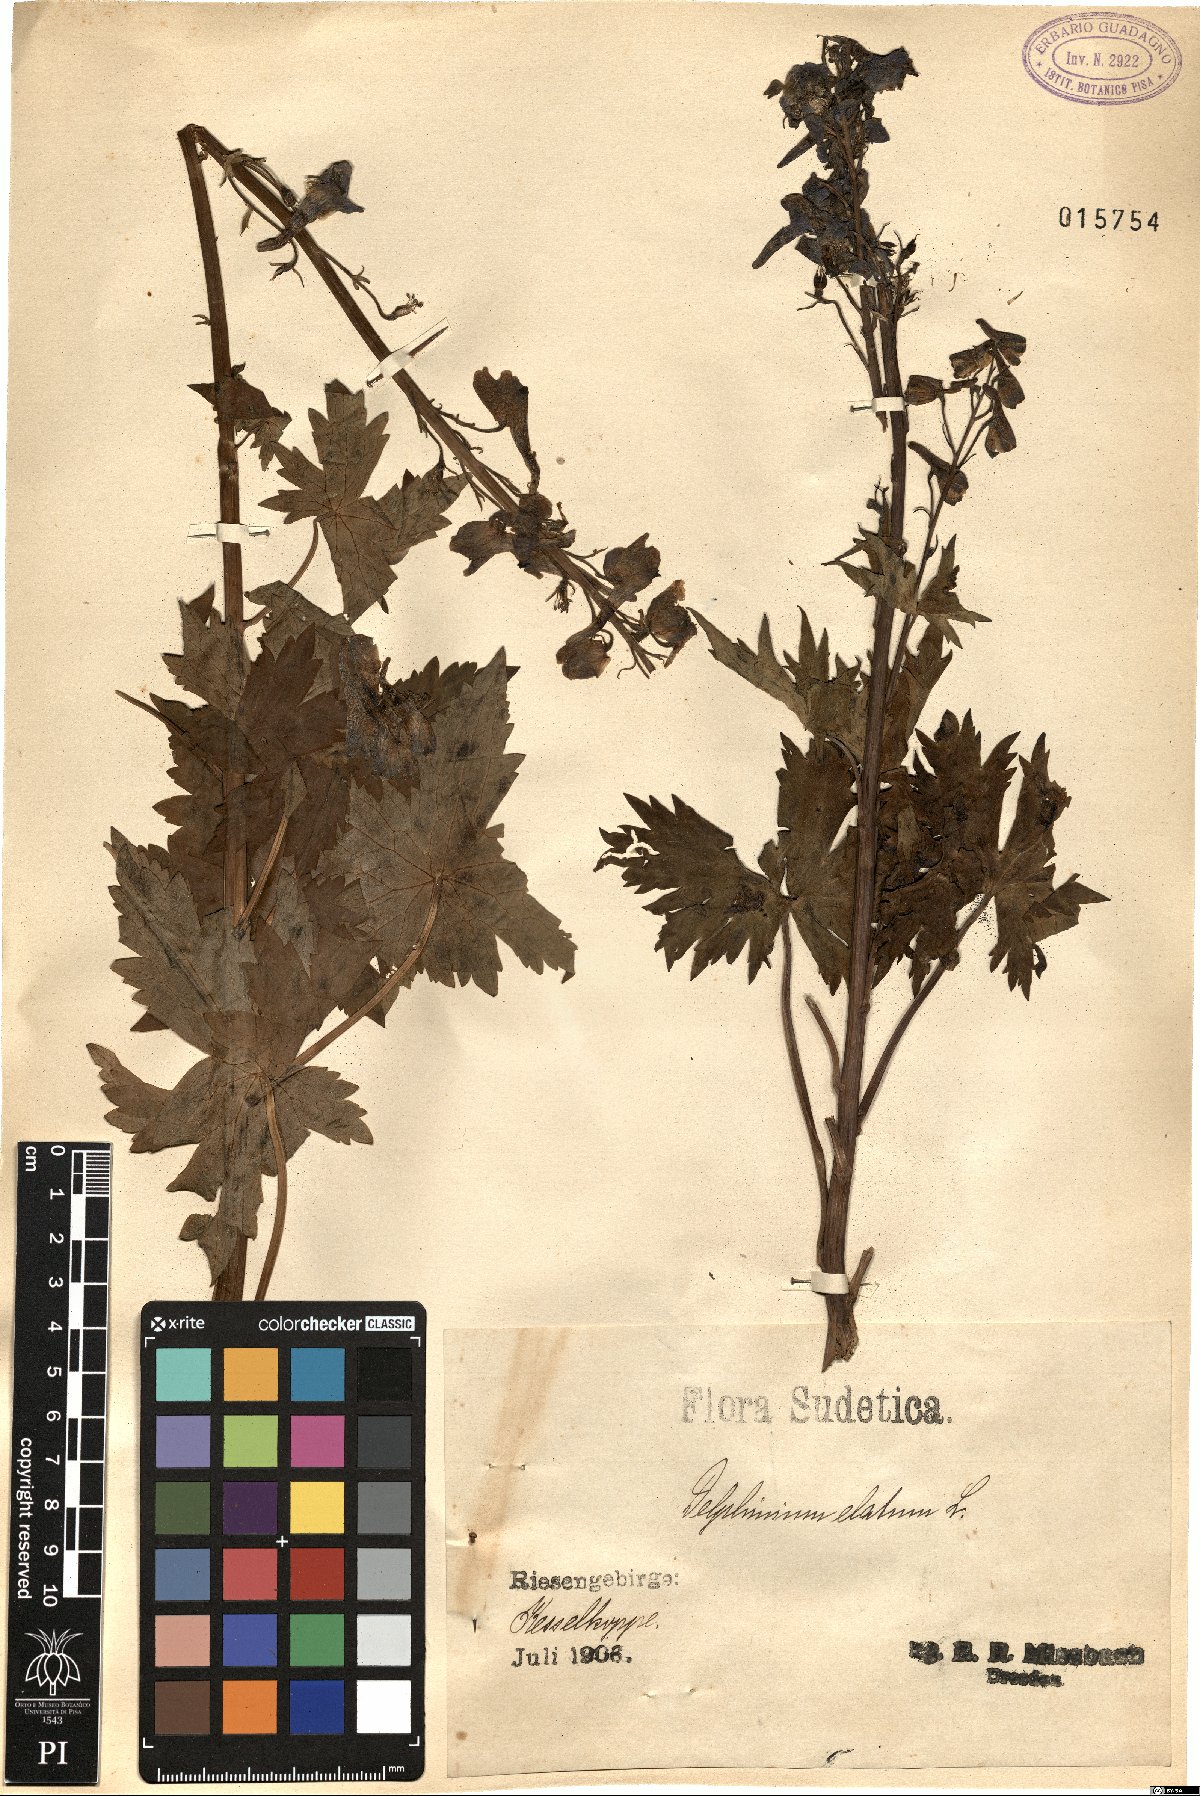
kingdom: Plantae
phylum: Tracheophyta
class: Magnoliopsida
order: Ranunculales
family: Ranunculaceae
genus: Delphinium
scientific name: Delphinium elatum
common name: Candle larkspur
